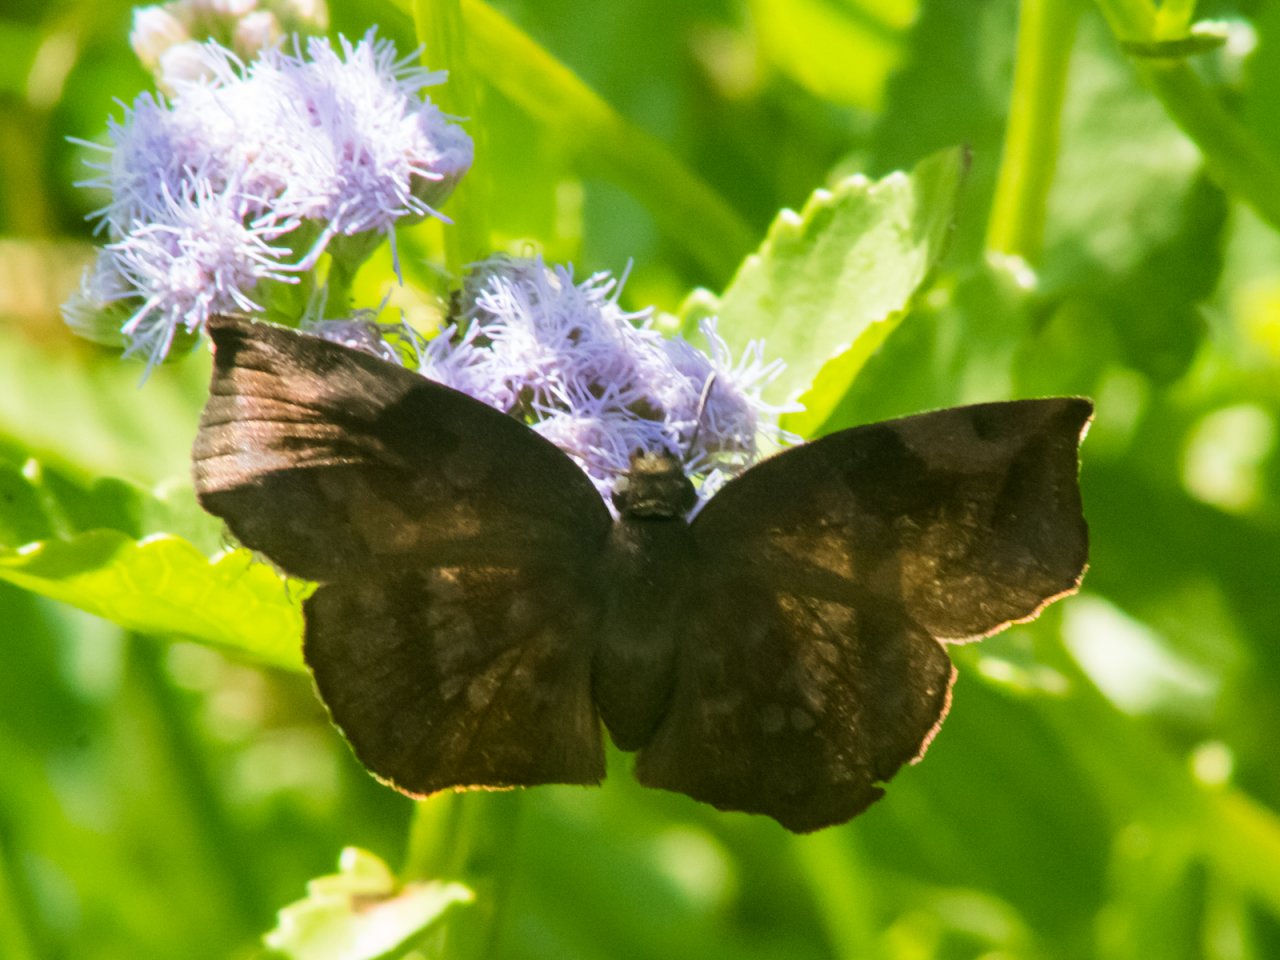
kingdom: Animalia
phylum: Arthropoda
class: Insecta
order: Lepidoptera
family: Hesperiidae
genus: Achlyodes
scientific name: Achlyodes thraso
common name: Sickle-winged Skipper
